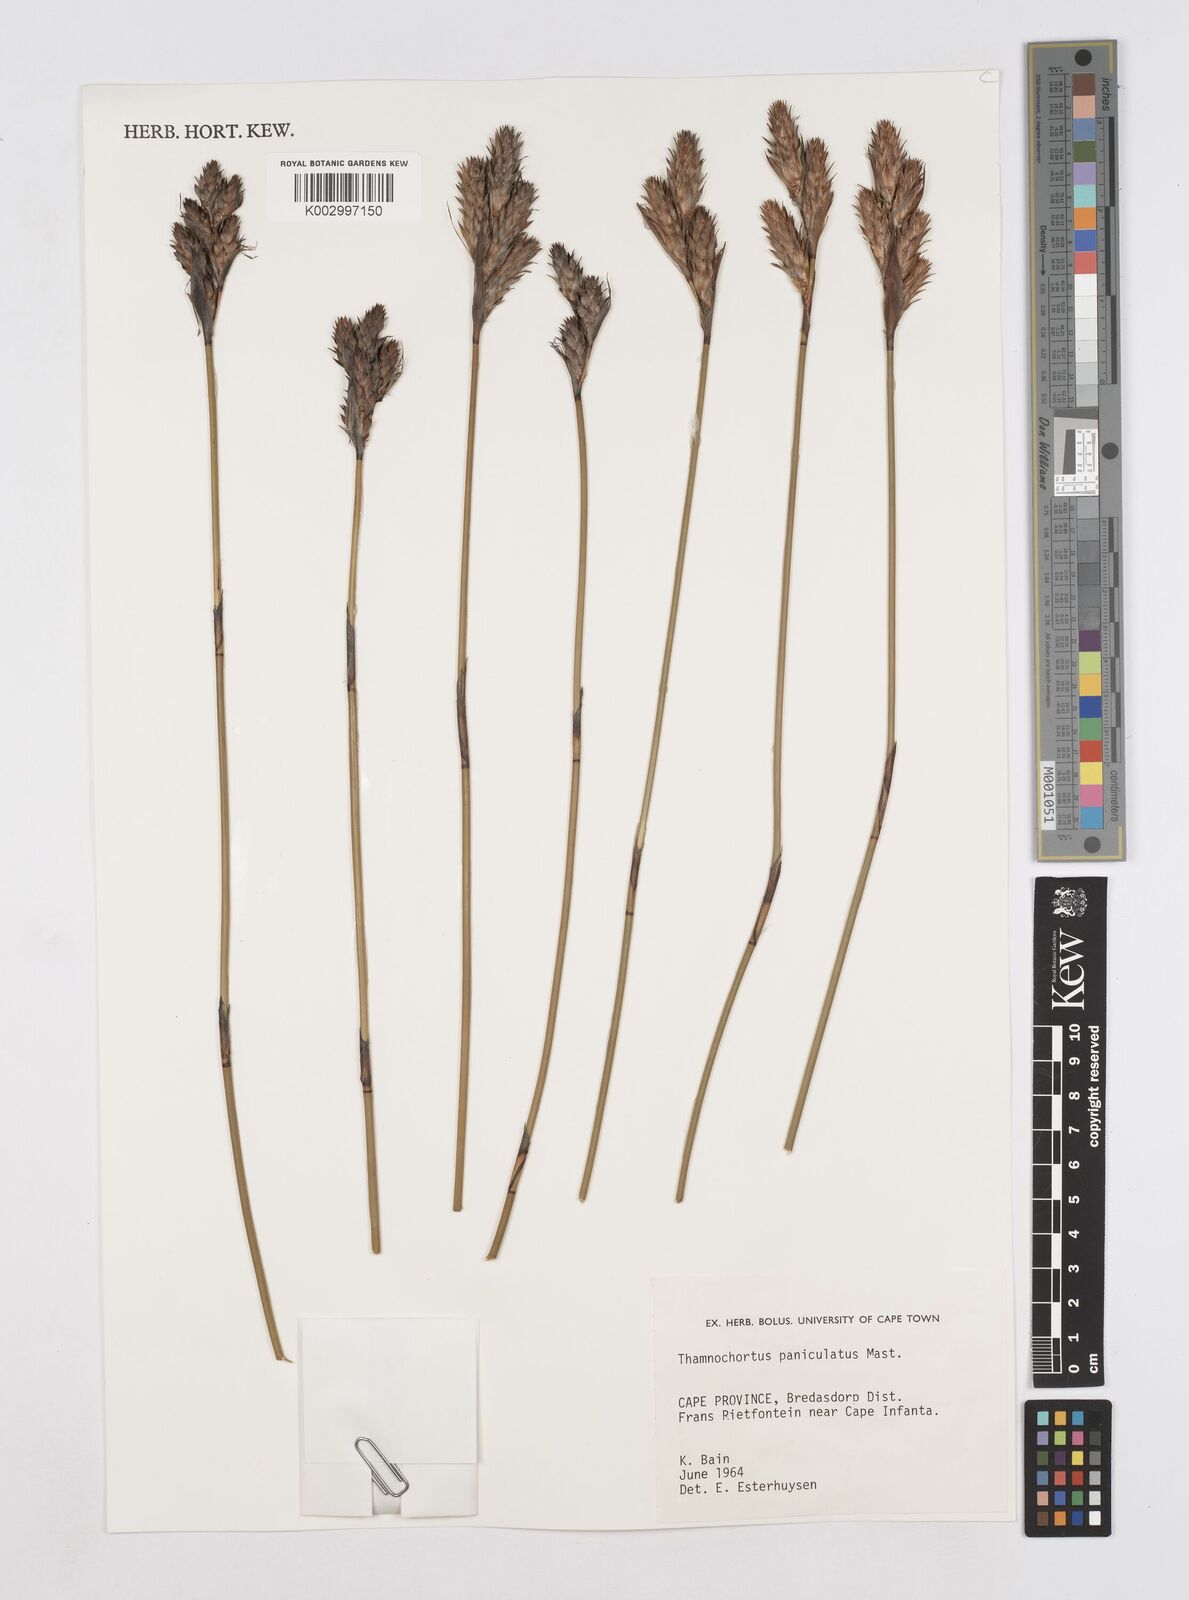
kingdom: Plantae
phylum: Tracheophyta
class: Liliopsida
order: Poales
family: Restionaceae
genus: Thamnochortus
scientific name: Thamnochortus paniculatus
